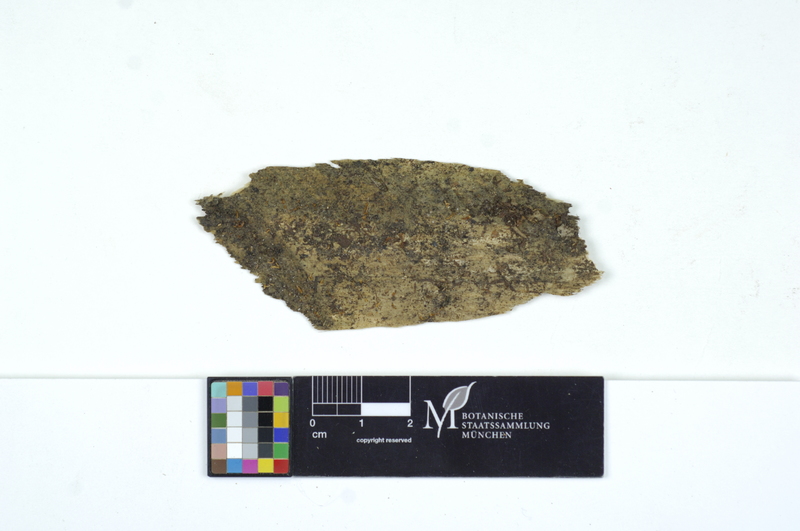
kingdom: Fungi
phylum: Basidiomycota
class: Dacrymycetes
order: Dacrymycetales
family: Dacrymycetaceae
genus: Calocera
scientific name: Calocera furcata
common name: Forked stagshorn
